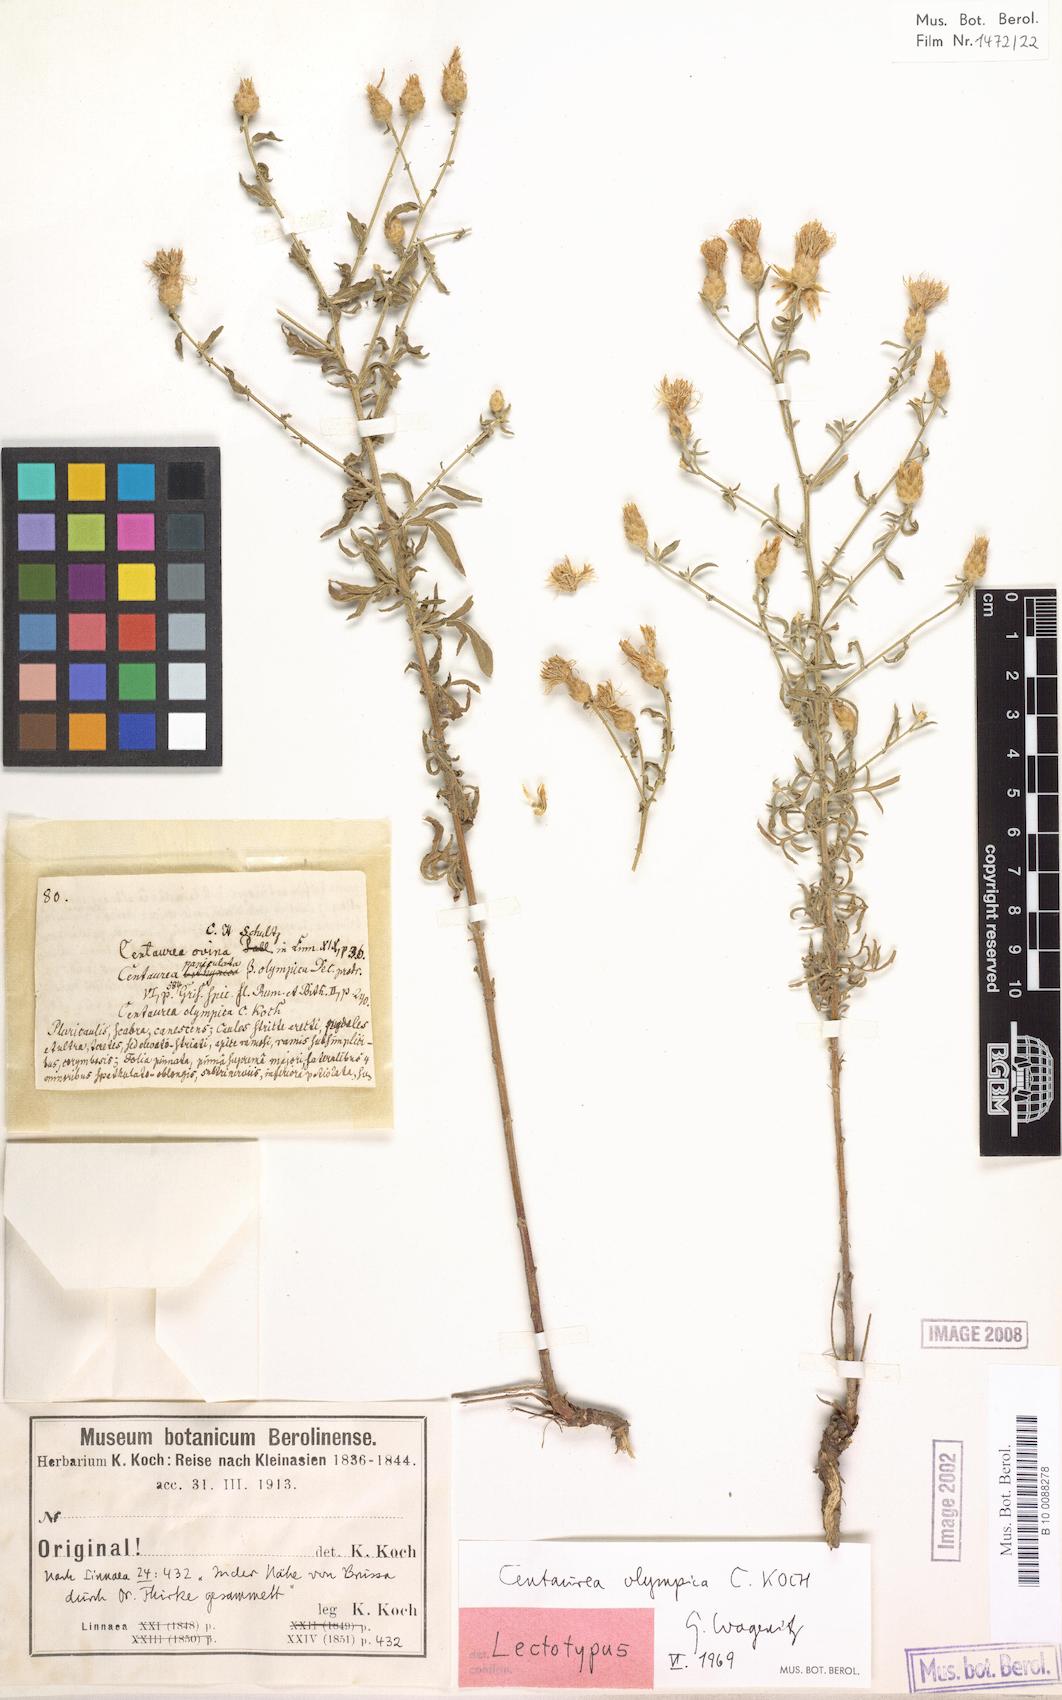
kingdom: Plantae
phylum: Tracheophyta
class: Magnoliopsida
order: Asterales
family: Asteraceae
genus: Centaurea
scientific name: Centaurea olympica
